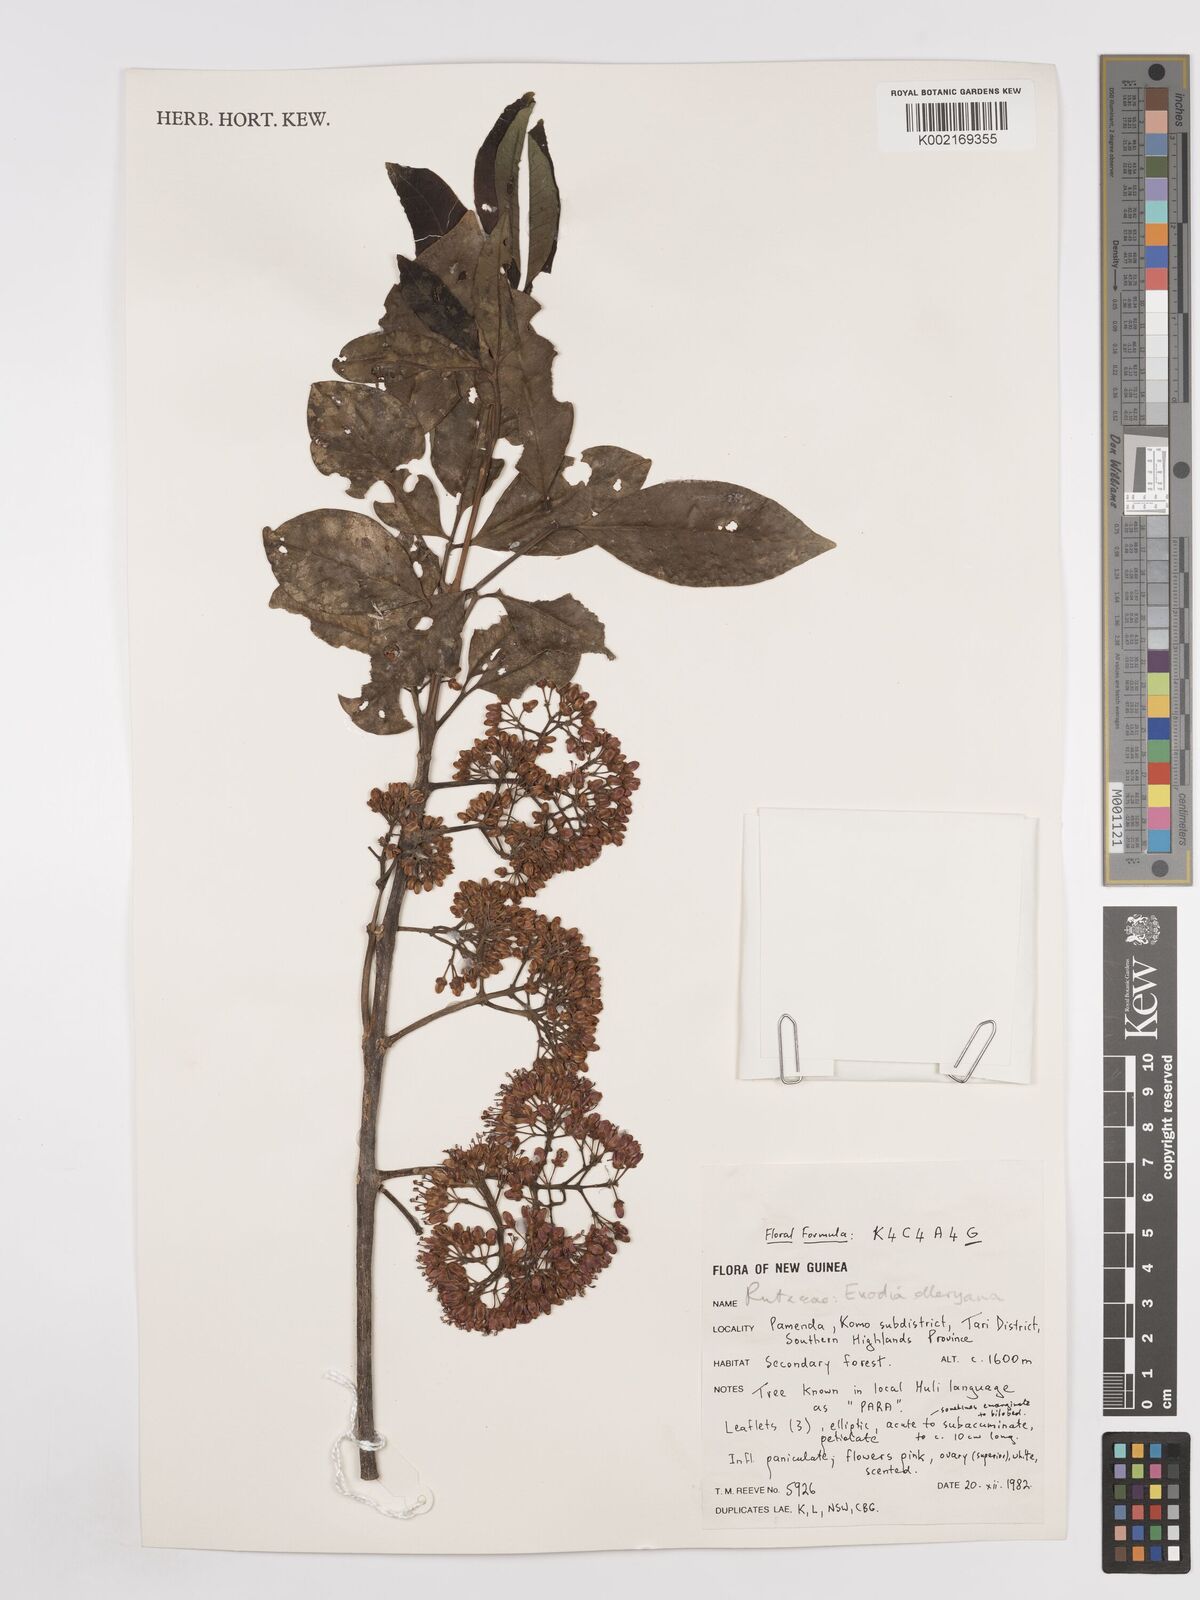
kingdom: Plantae
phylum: Tracheophyta
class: Magnoliopsida
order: Sapindales
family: Rutaceae
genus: Melicope
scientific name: Melicope elleryana
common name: Pink euodia
